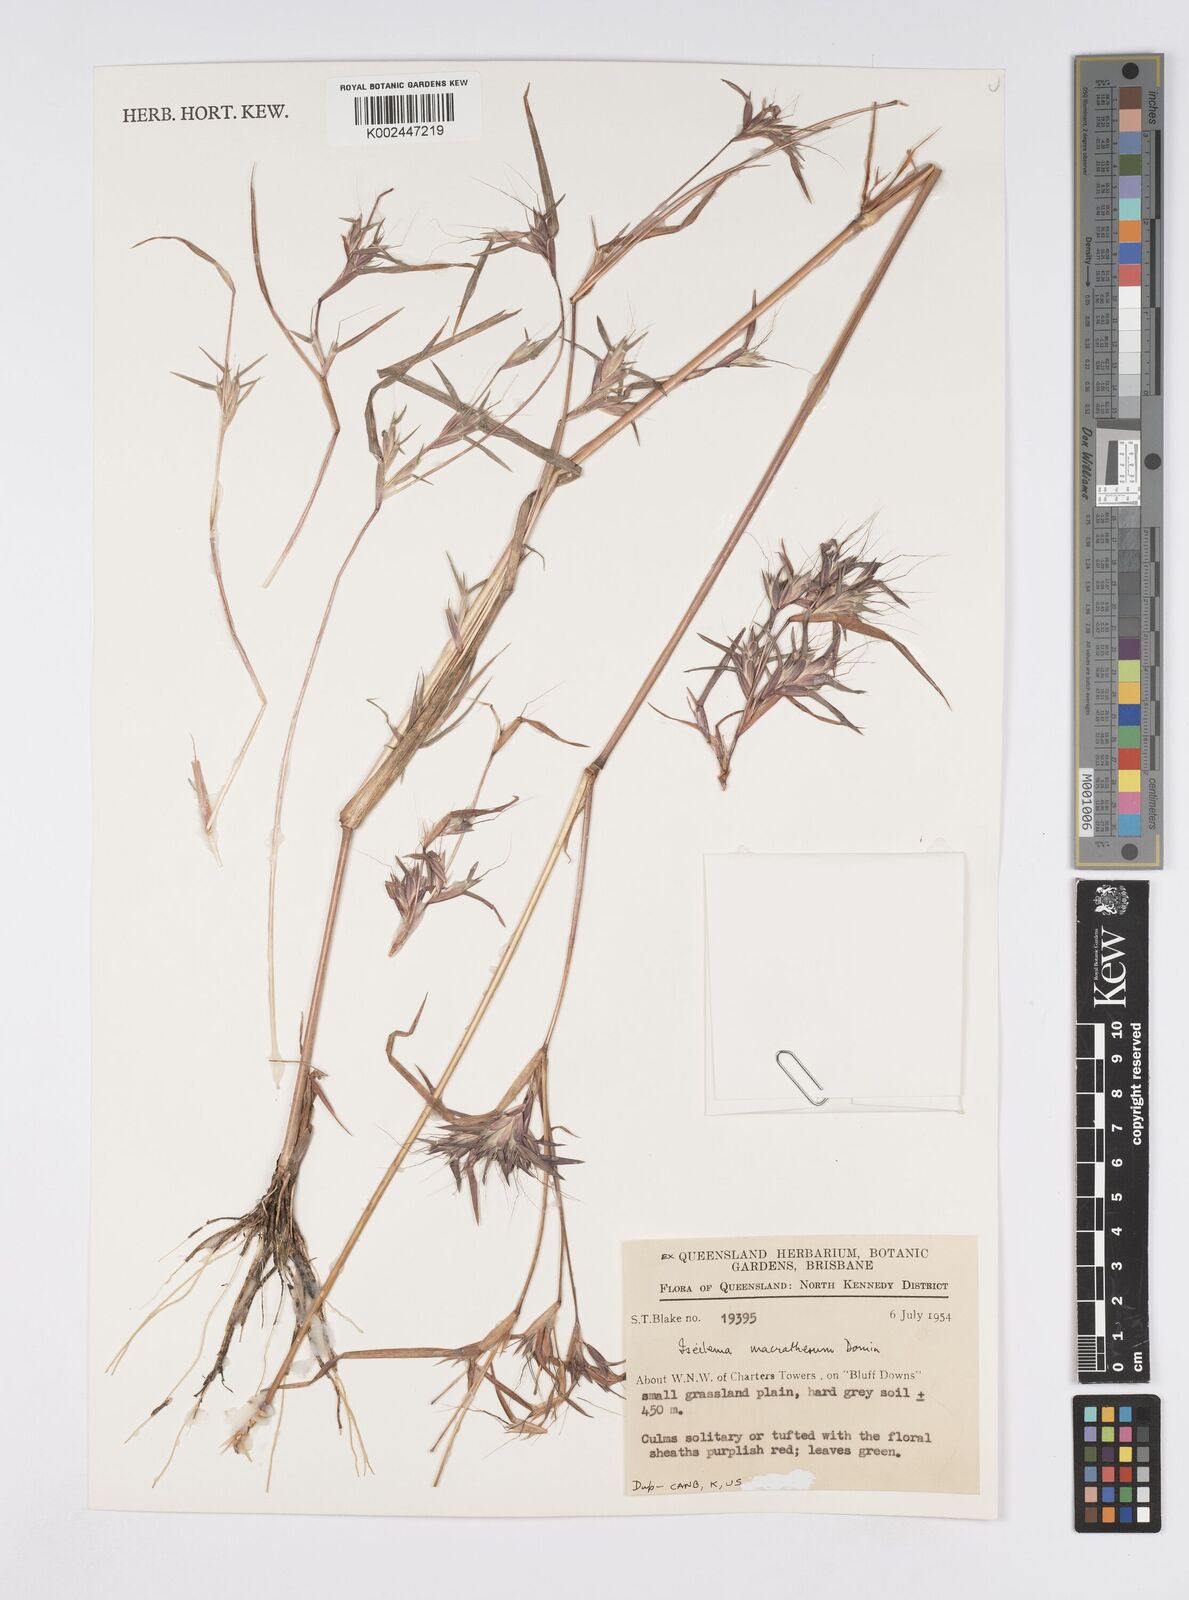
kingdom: Plantae
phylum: Tracheophyta
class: Liliopsida
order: Poales
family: Poaceae
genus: Iseilema
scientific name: Iseilema macratherum
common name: Bull flinders grass
